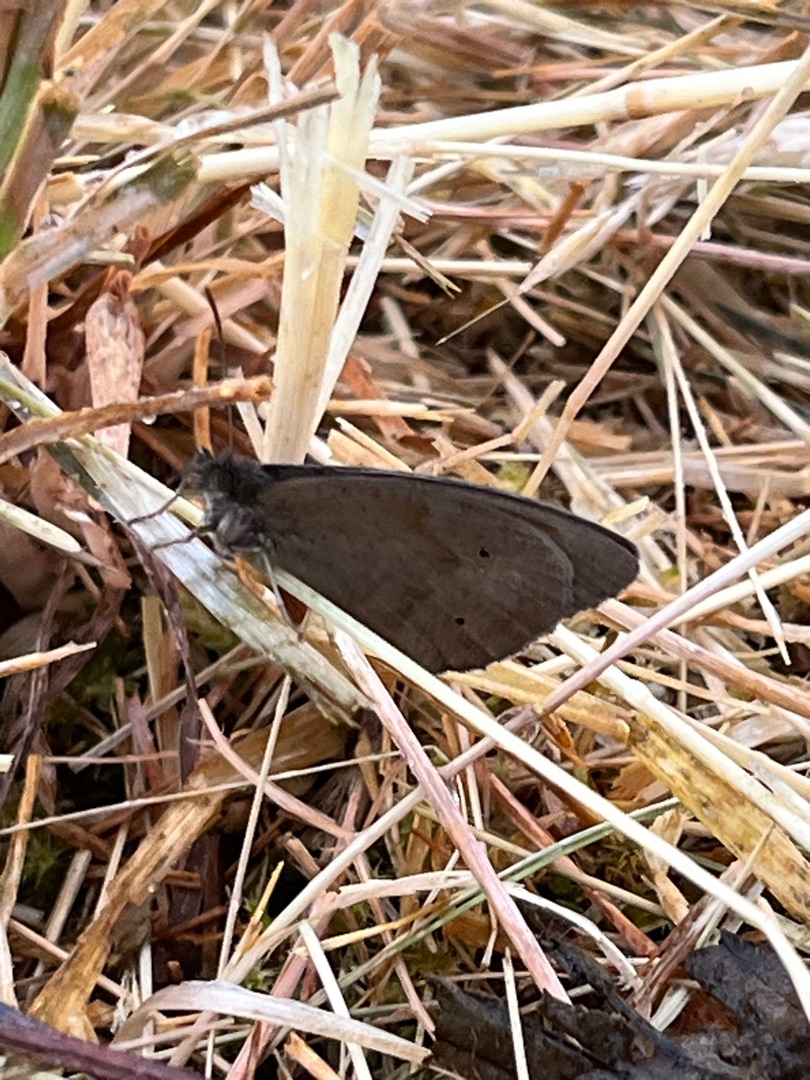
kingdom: Animalia
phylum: Arthropoda
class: Insecta
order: Lepidoptera
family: Nymphalidae
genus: Maniola
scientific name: Maniola jurtina
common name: Græsrandøje
